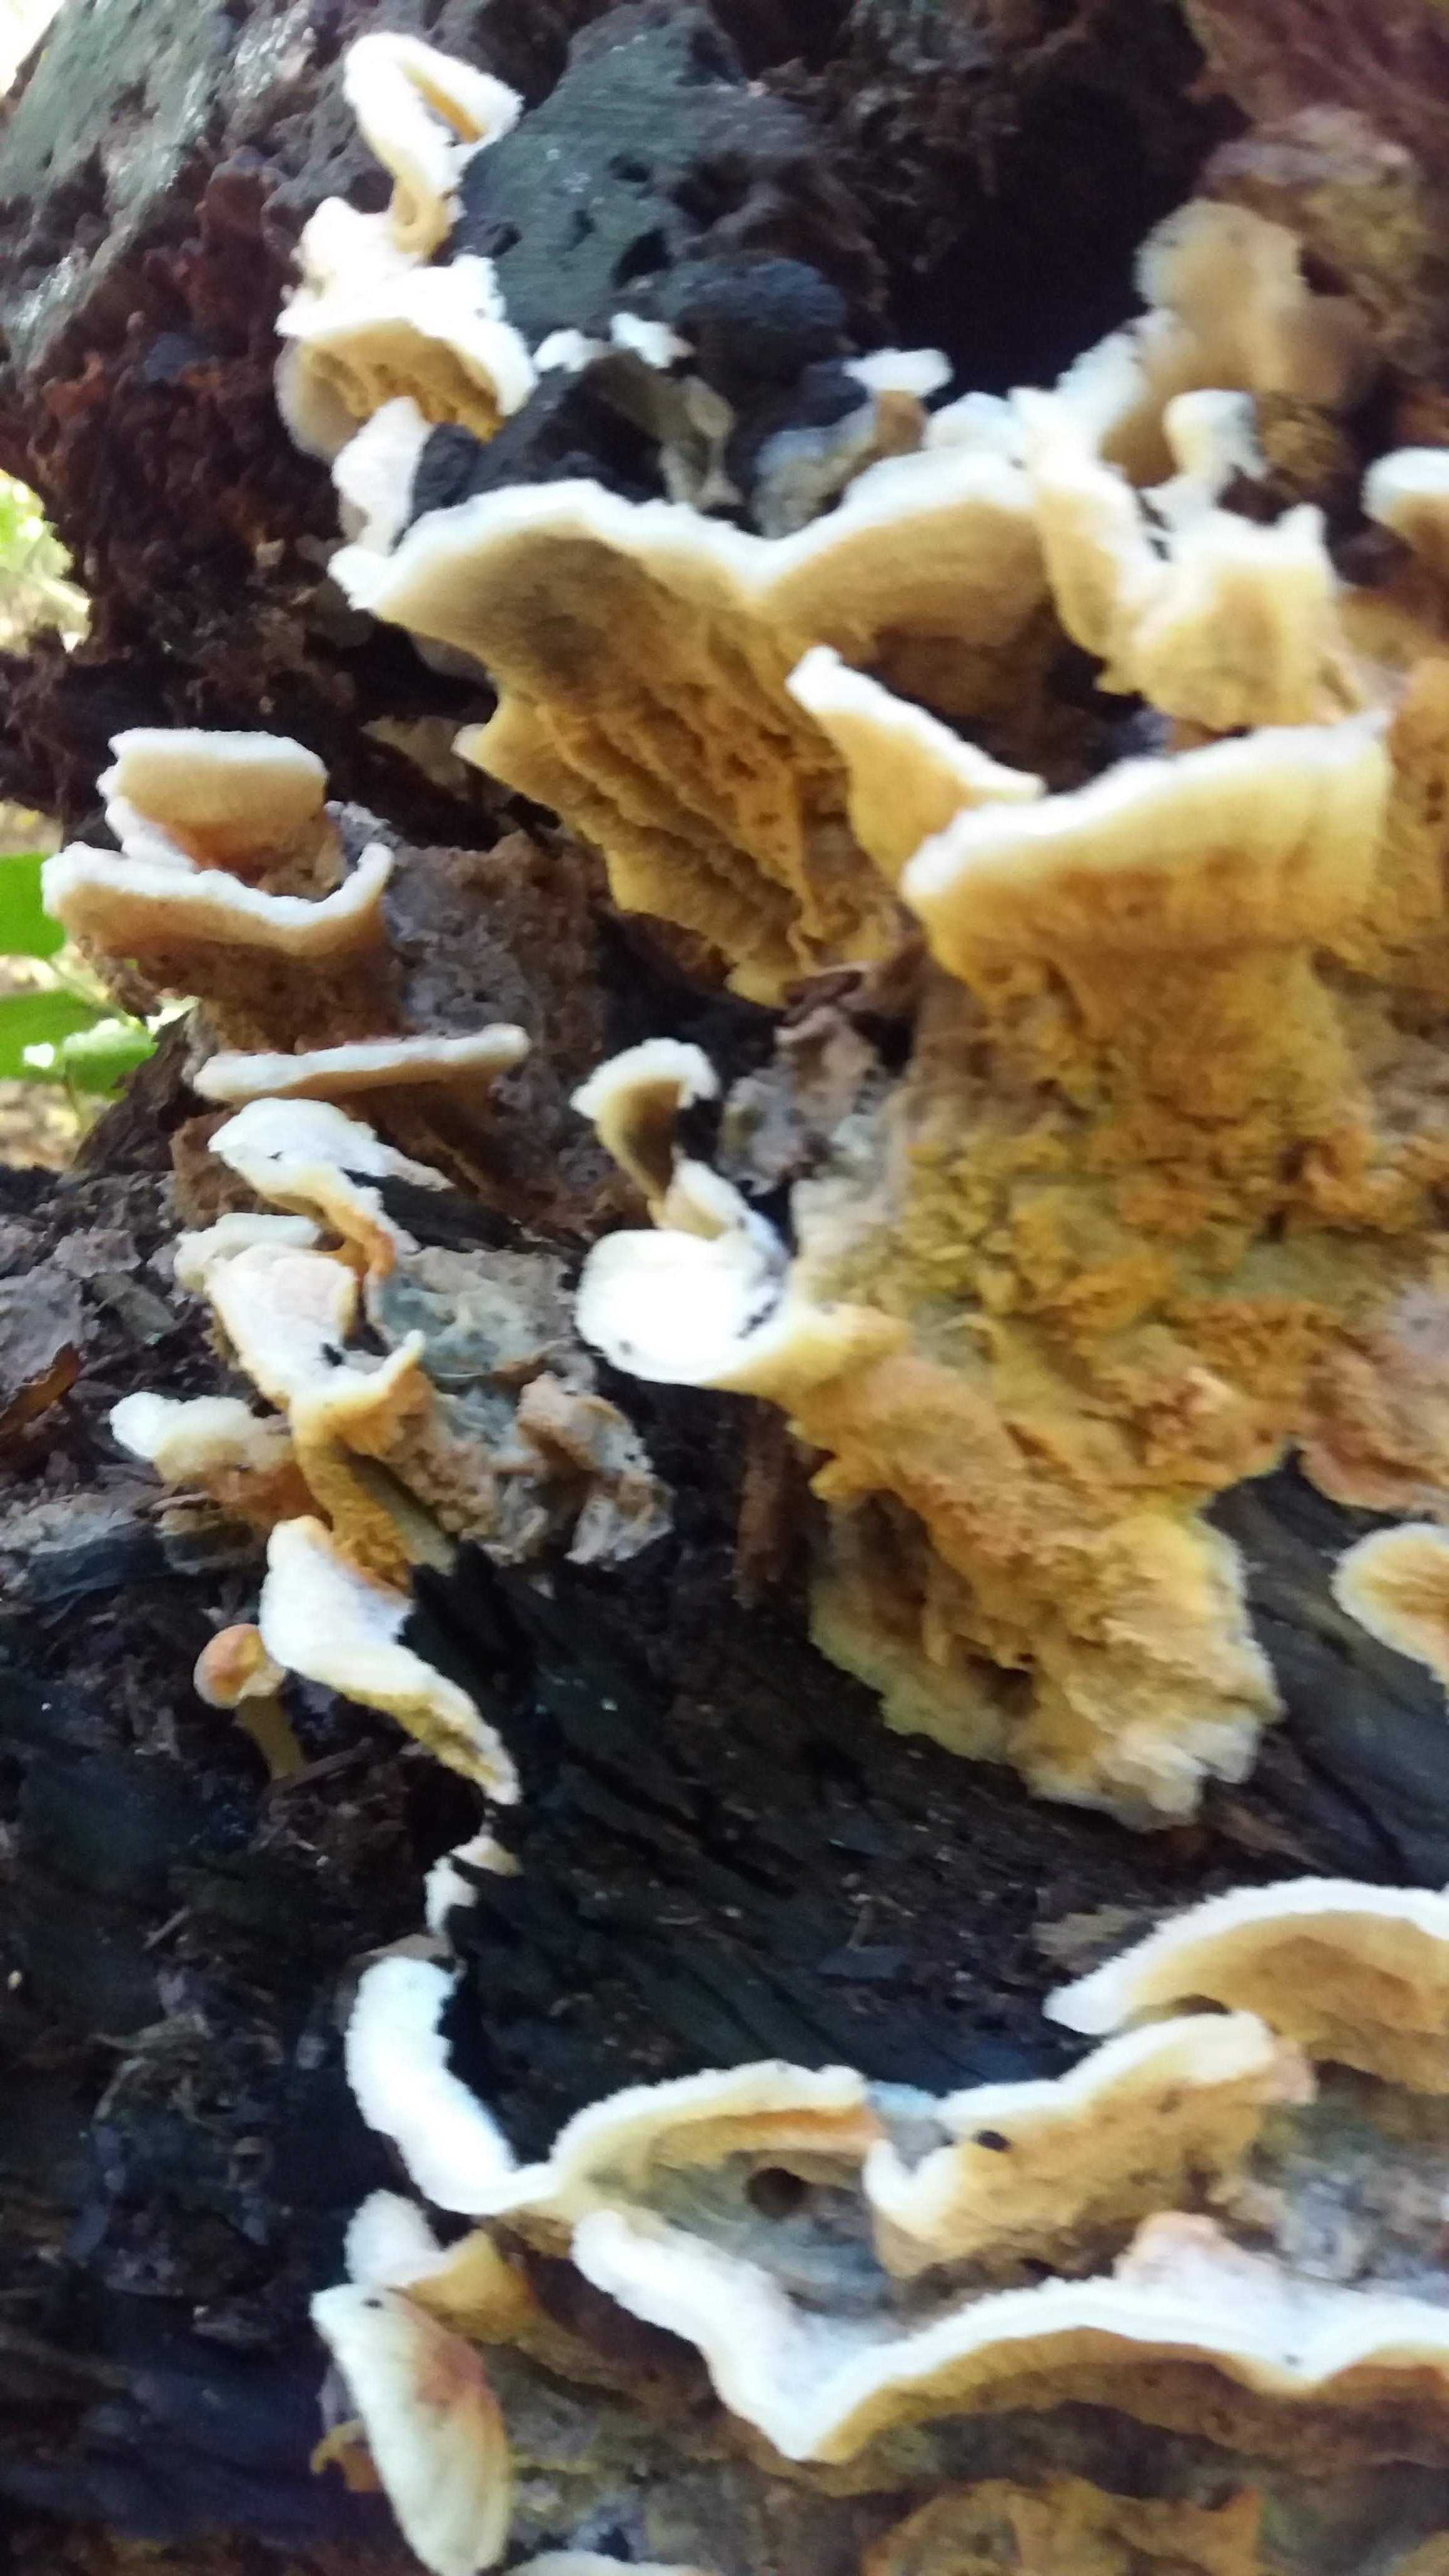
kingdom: Fungi
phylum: Basidiomycota
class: Agaricomycetes
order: Polyporales
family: Meruliaceae
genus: Phlebia
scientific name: Phlebia tremellosa
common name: bævrende åresvamp
